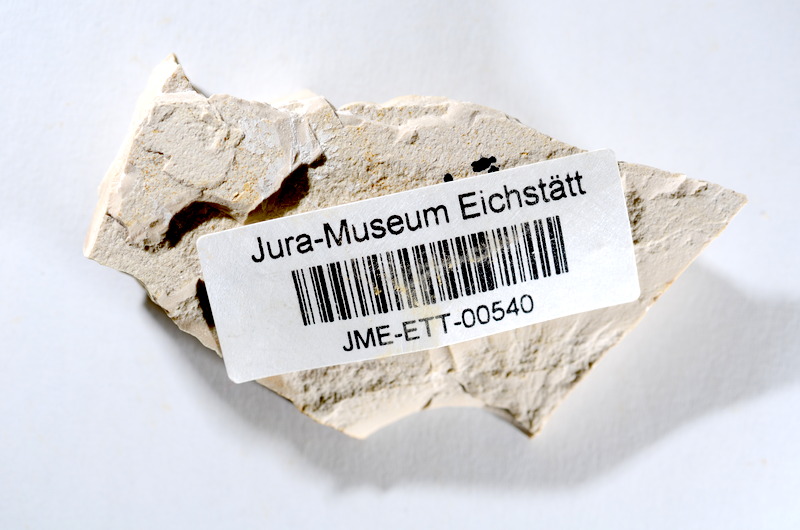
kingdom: Animalia
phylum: Chordata
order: Salmoniformes
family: Orthogonikleithridae
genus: Orthogonikleithrus
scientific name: Orthogonikleithrus hoelli
